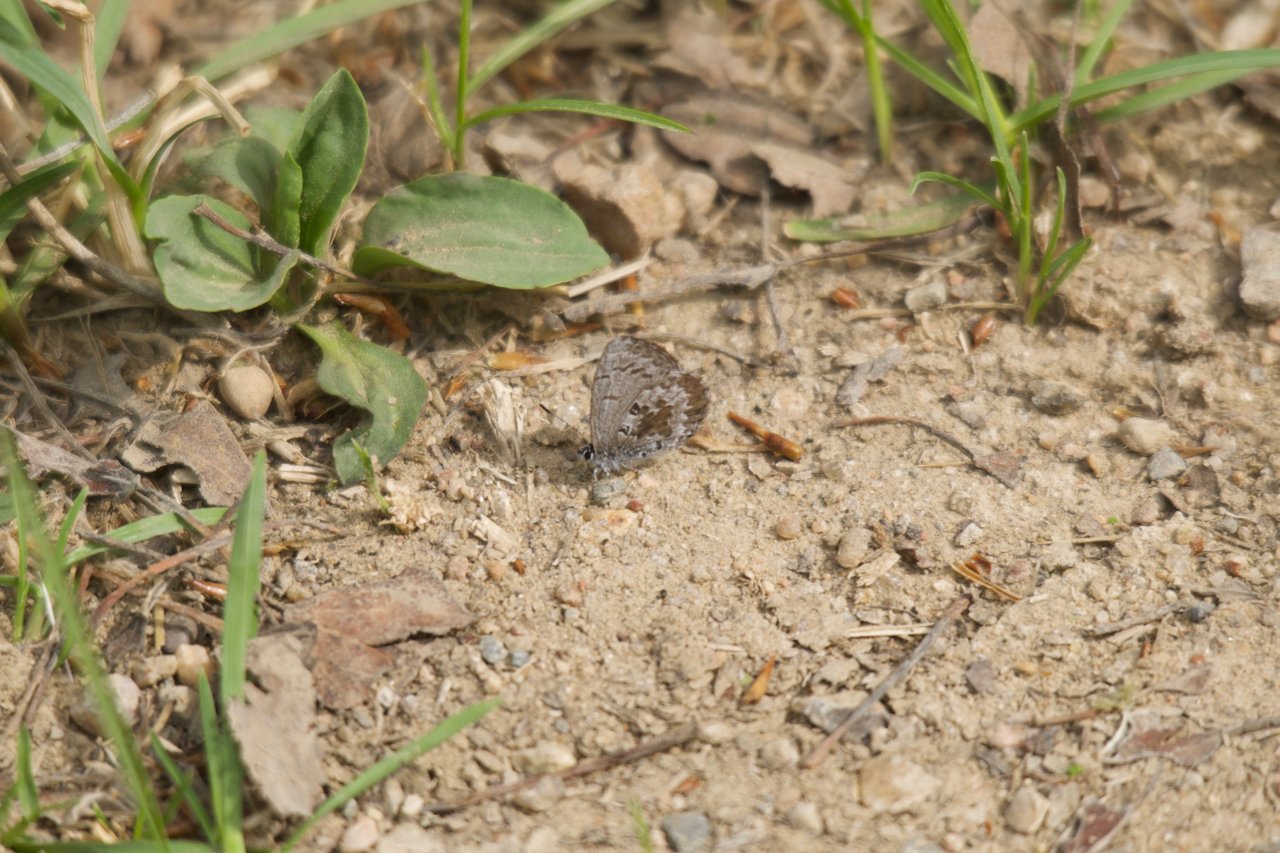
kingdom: Animalia
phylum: Arthropoda
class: Insecta
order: Lepidoptera
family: Lycaenidae
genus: Celastrina
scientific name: Celastrina lucia
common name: Northern Spring Azure
